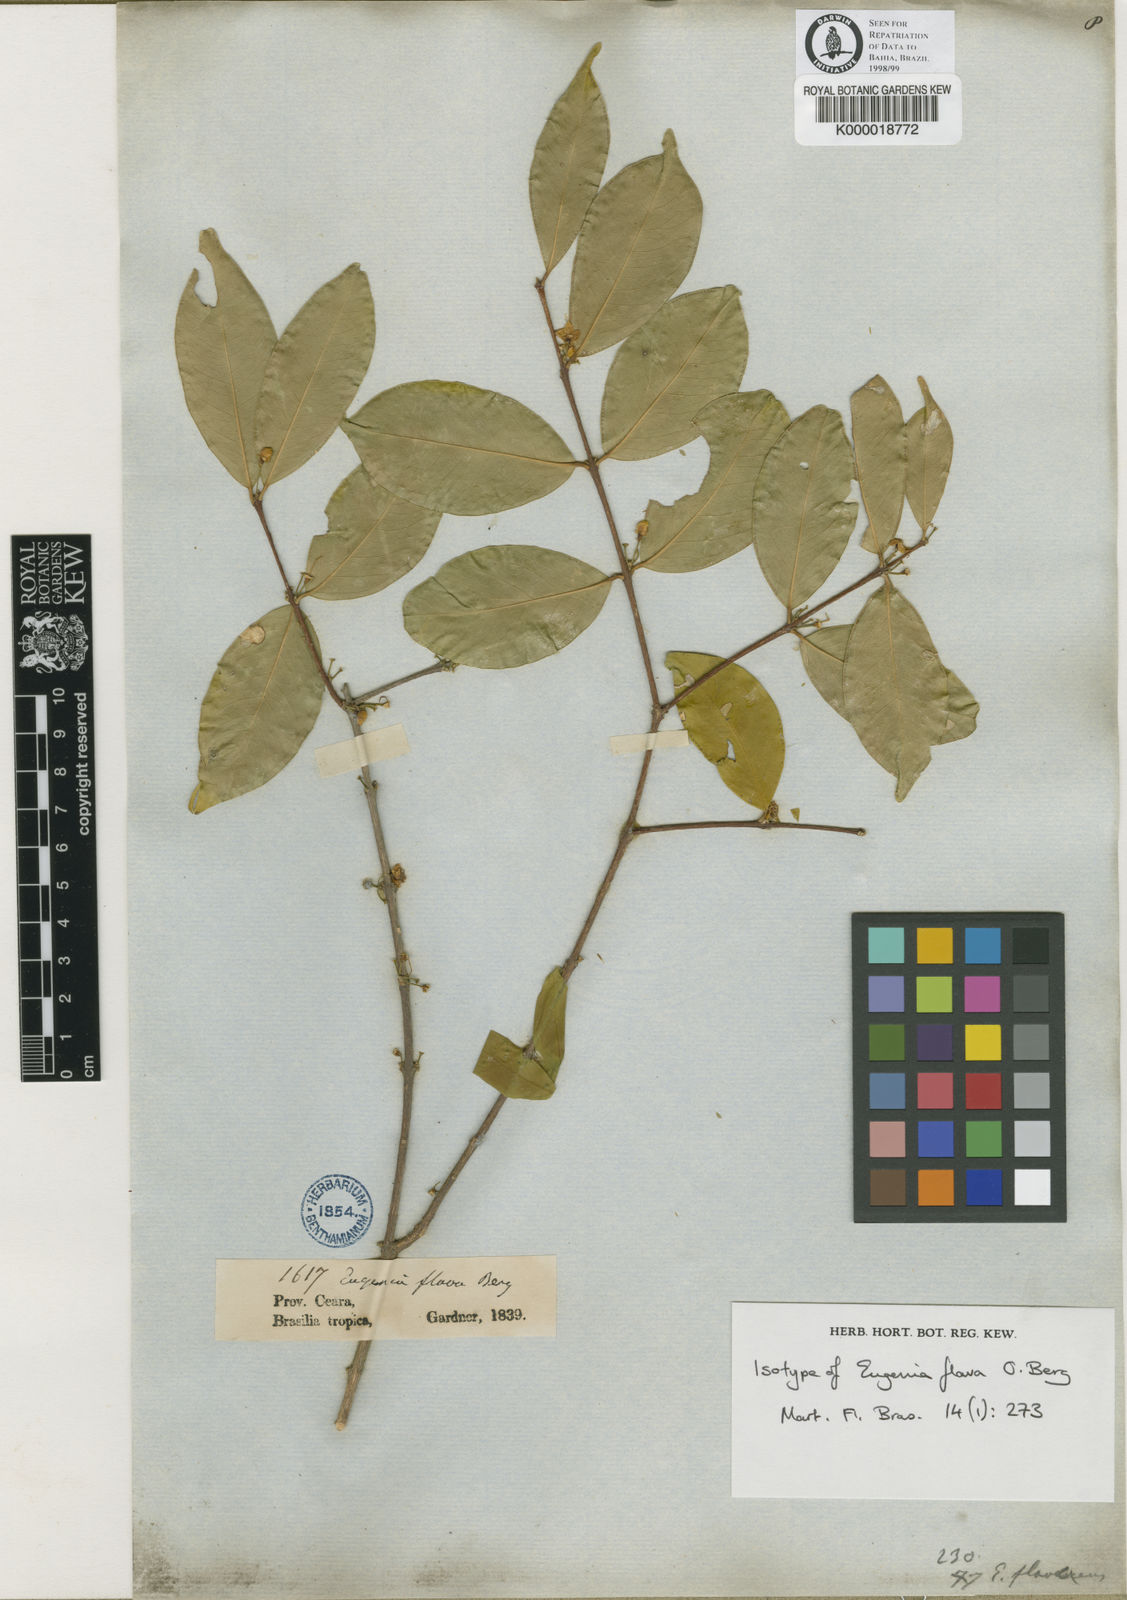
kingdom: Plantae
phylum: Tracheophyta
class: Magnoliopsida
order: Myrtales
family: Myrtaceae
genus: Eugenia
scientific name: Eugenia punicifolia
